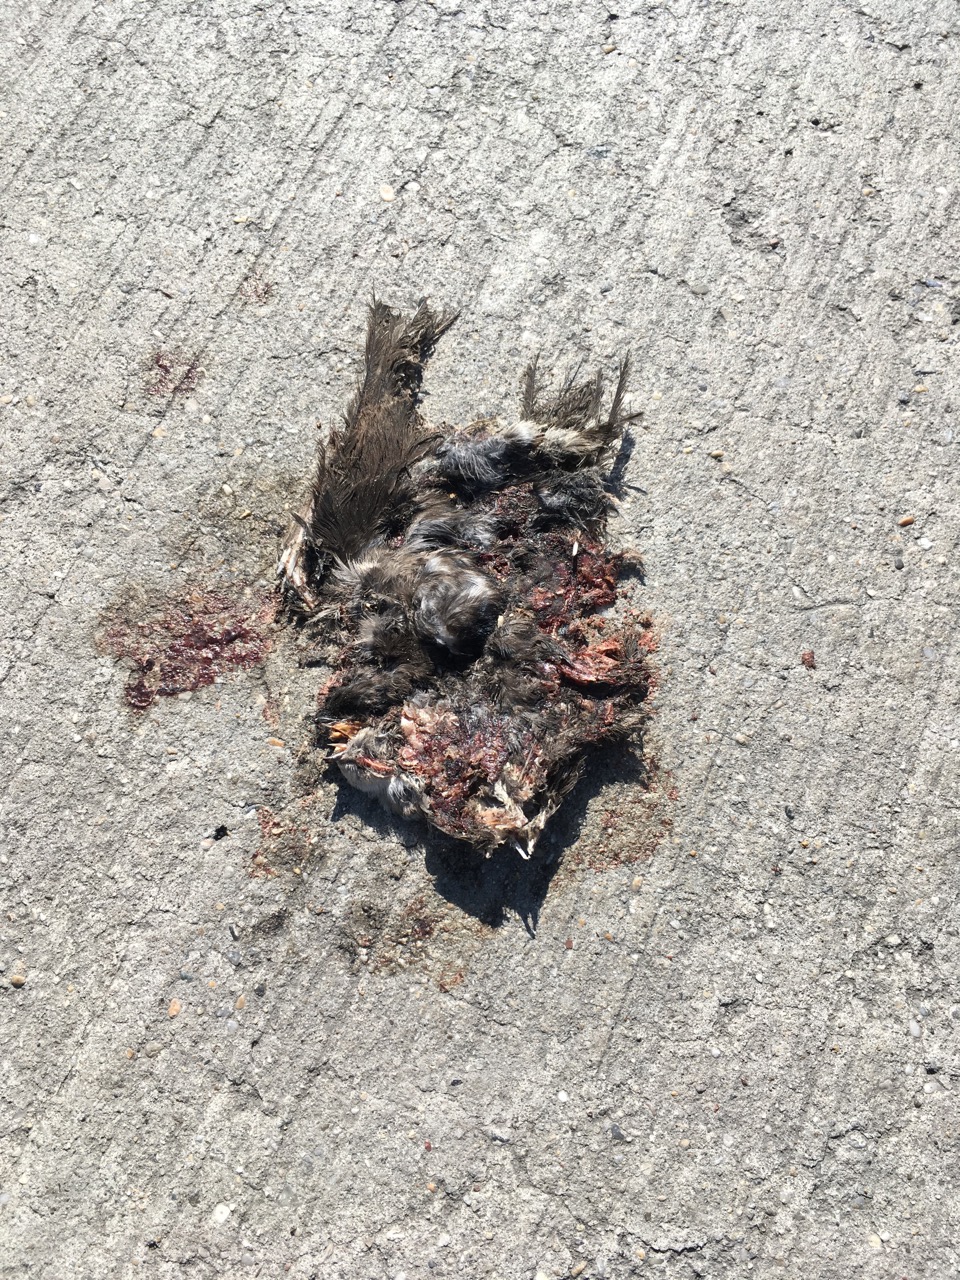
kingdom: Animalia
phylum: Chordata
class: Aves
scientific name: Aves
